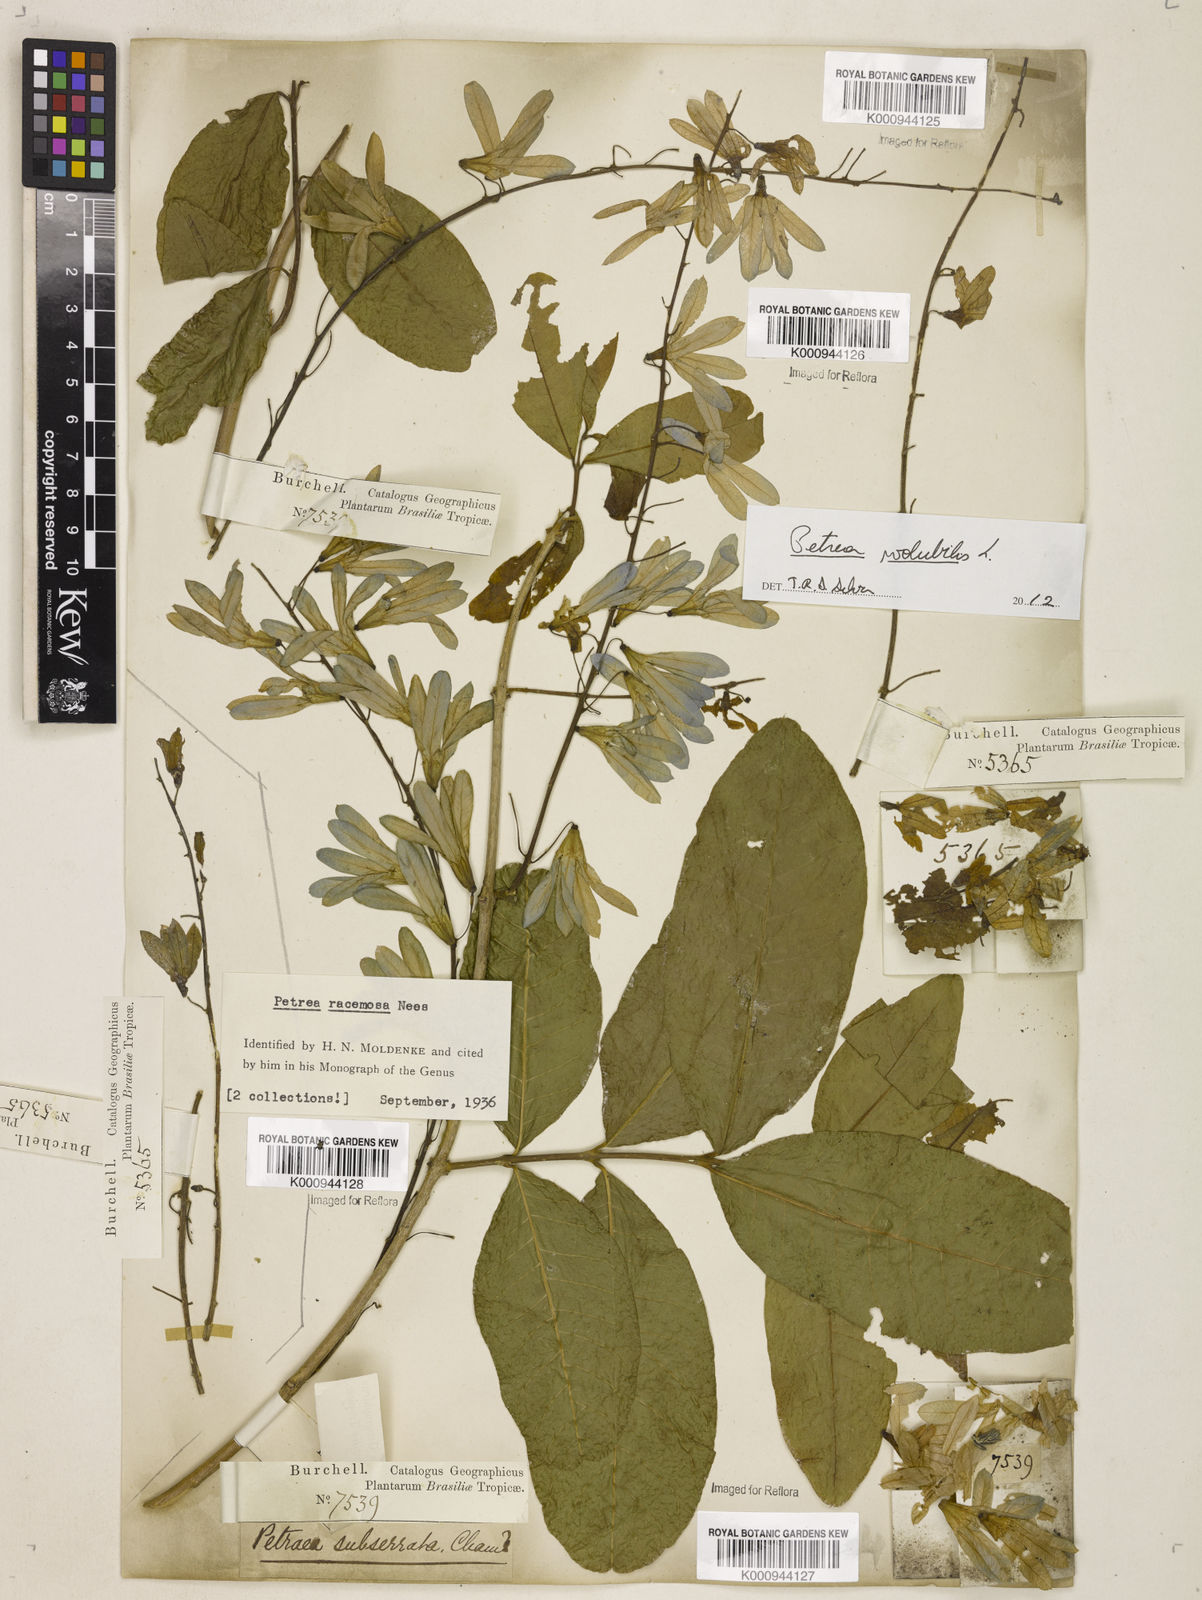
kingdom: Plantae
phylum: Tracheophyta
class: Magnoliopsida
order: Lamiales
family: Verbenaceae
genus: Petrea
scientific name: Petrea volubilis
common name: Queen's-wreath
